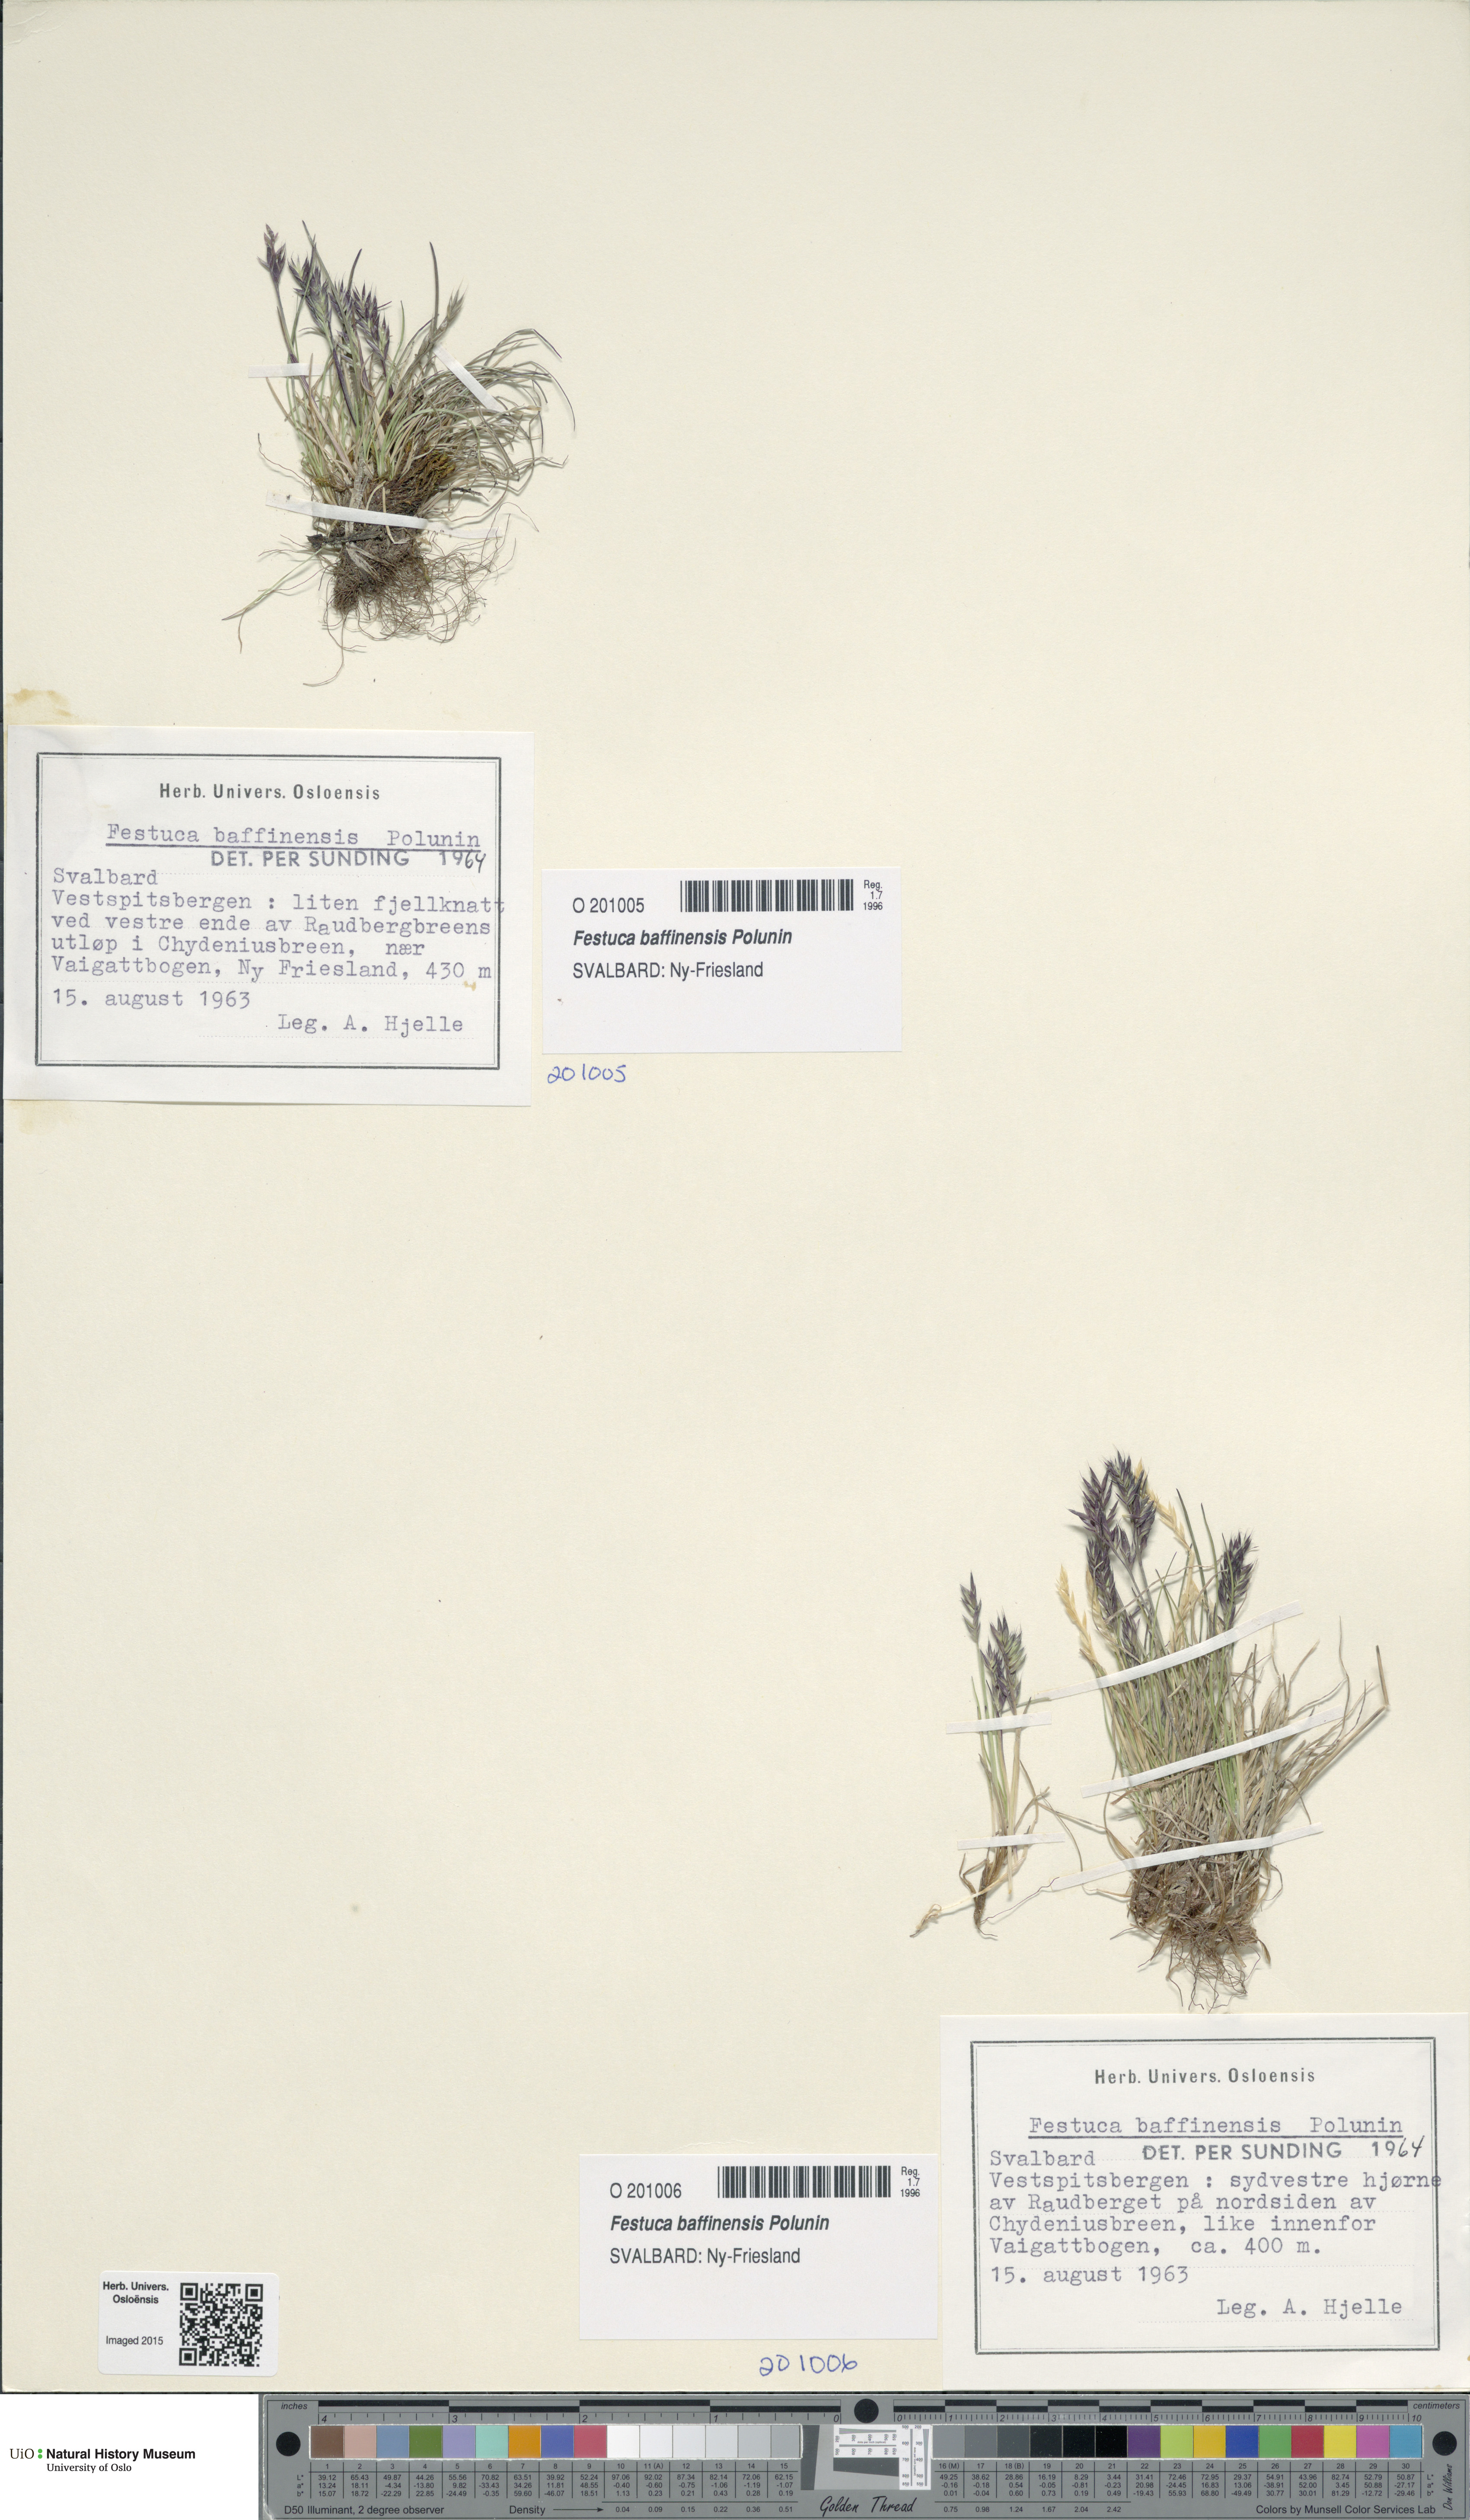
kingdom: Plantae
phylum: Tracheophyta
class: Liliopsida
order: Poales
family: Poaceae
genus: Festuca
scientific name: Festuca baffinensis
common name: Baffin island fescue
